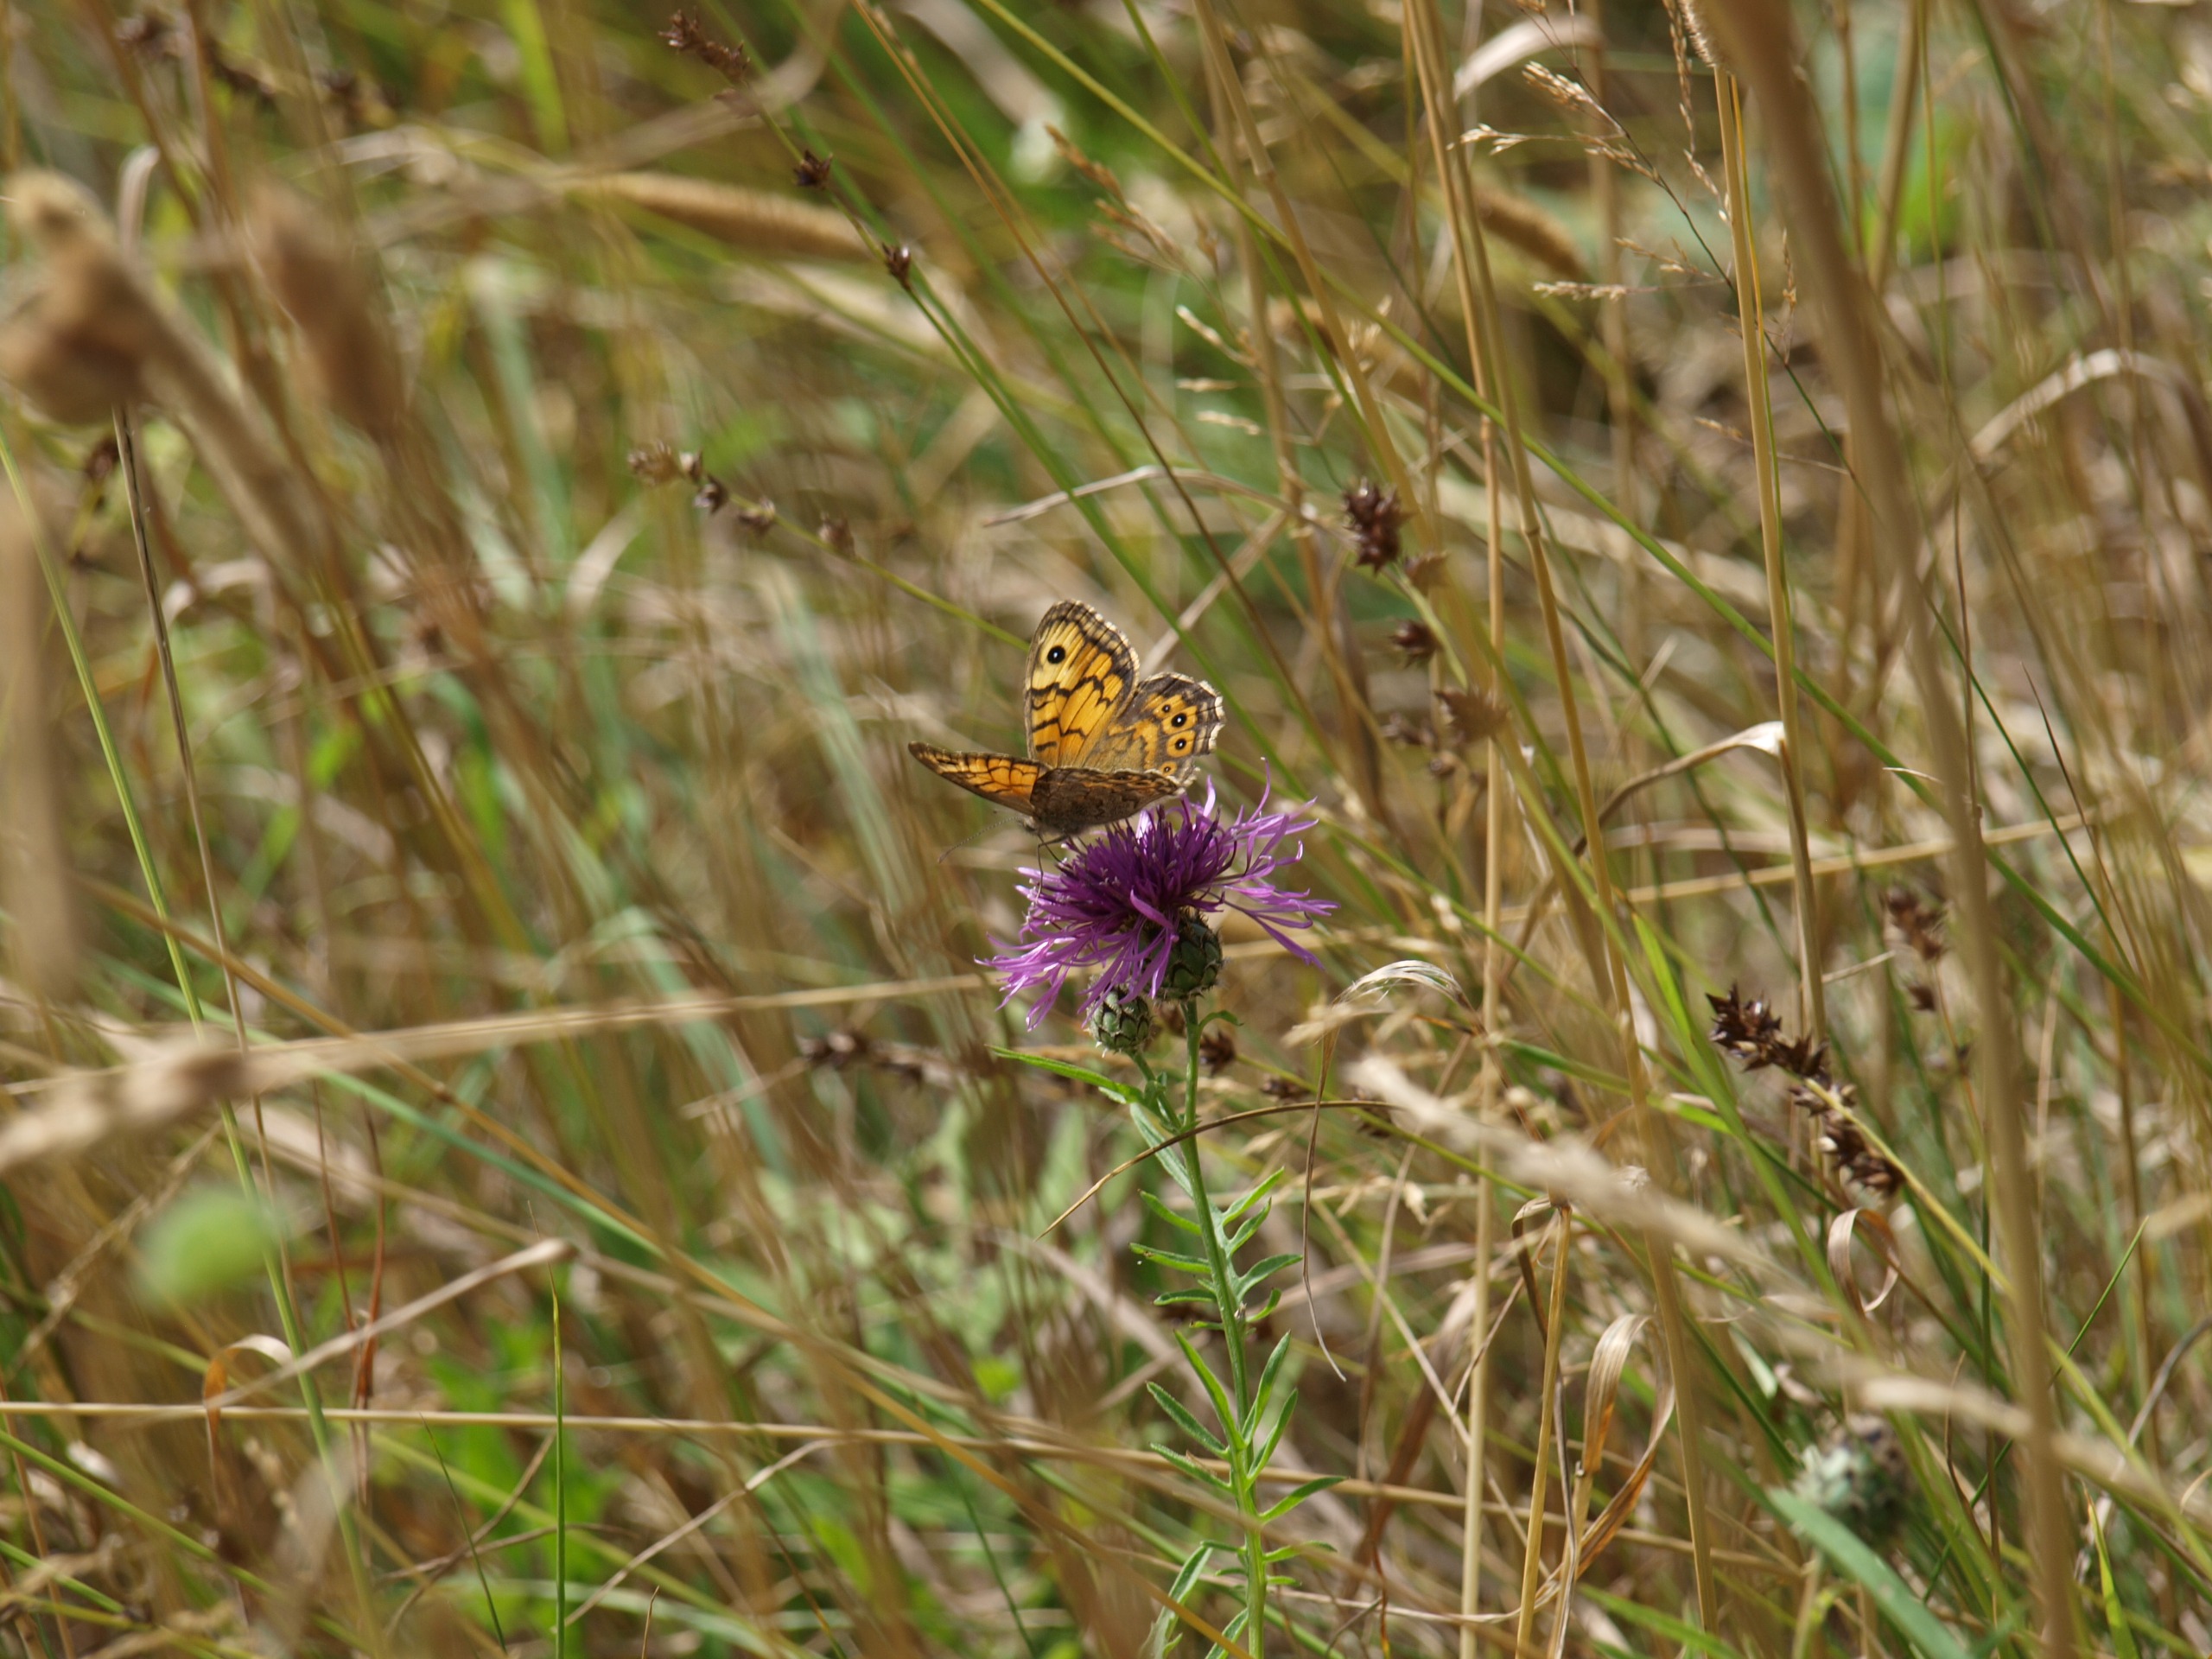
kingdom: Animalia
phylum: Arthropoda
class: Insecta
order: Lepidoptera
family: Nymphalidae
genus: Pararge
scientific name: Pararge Lasiommata megera
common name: Vejrandøje
